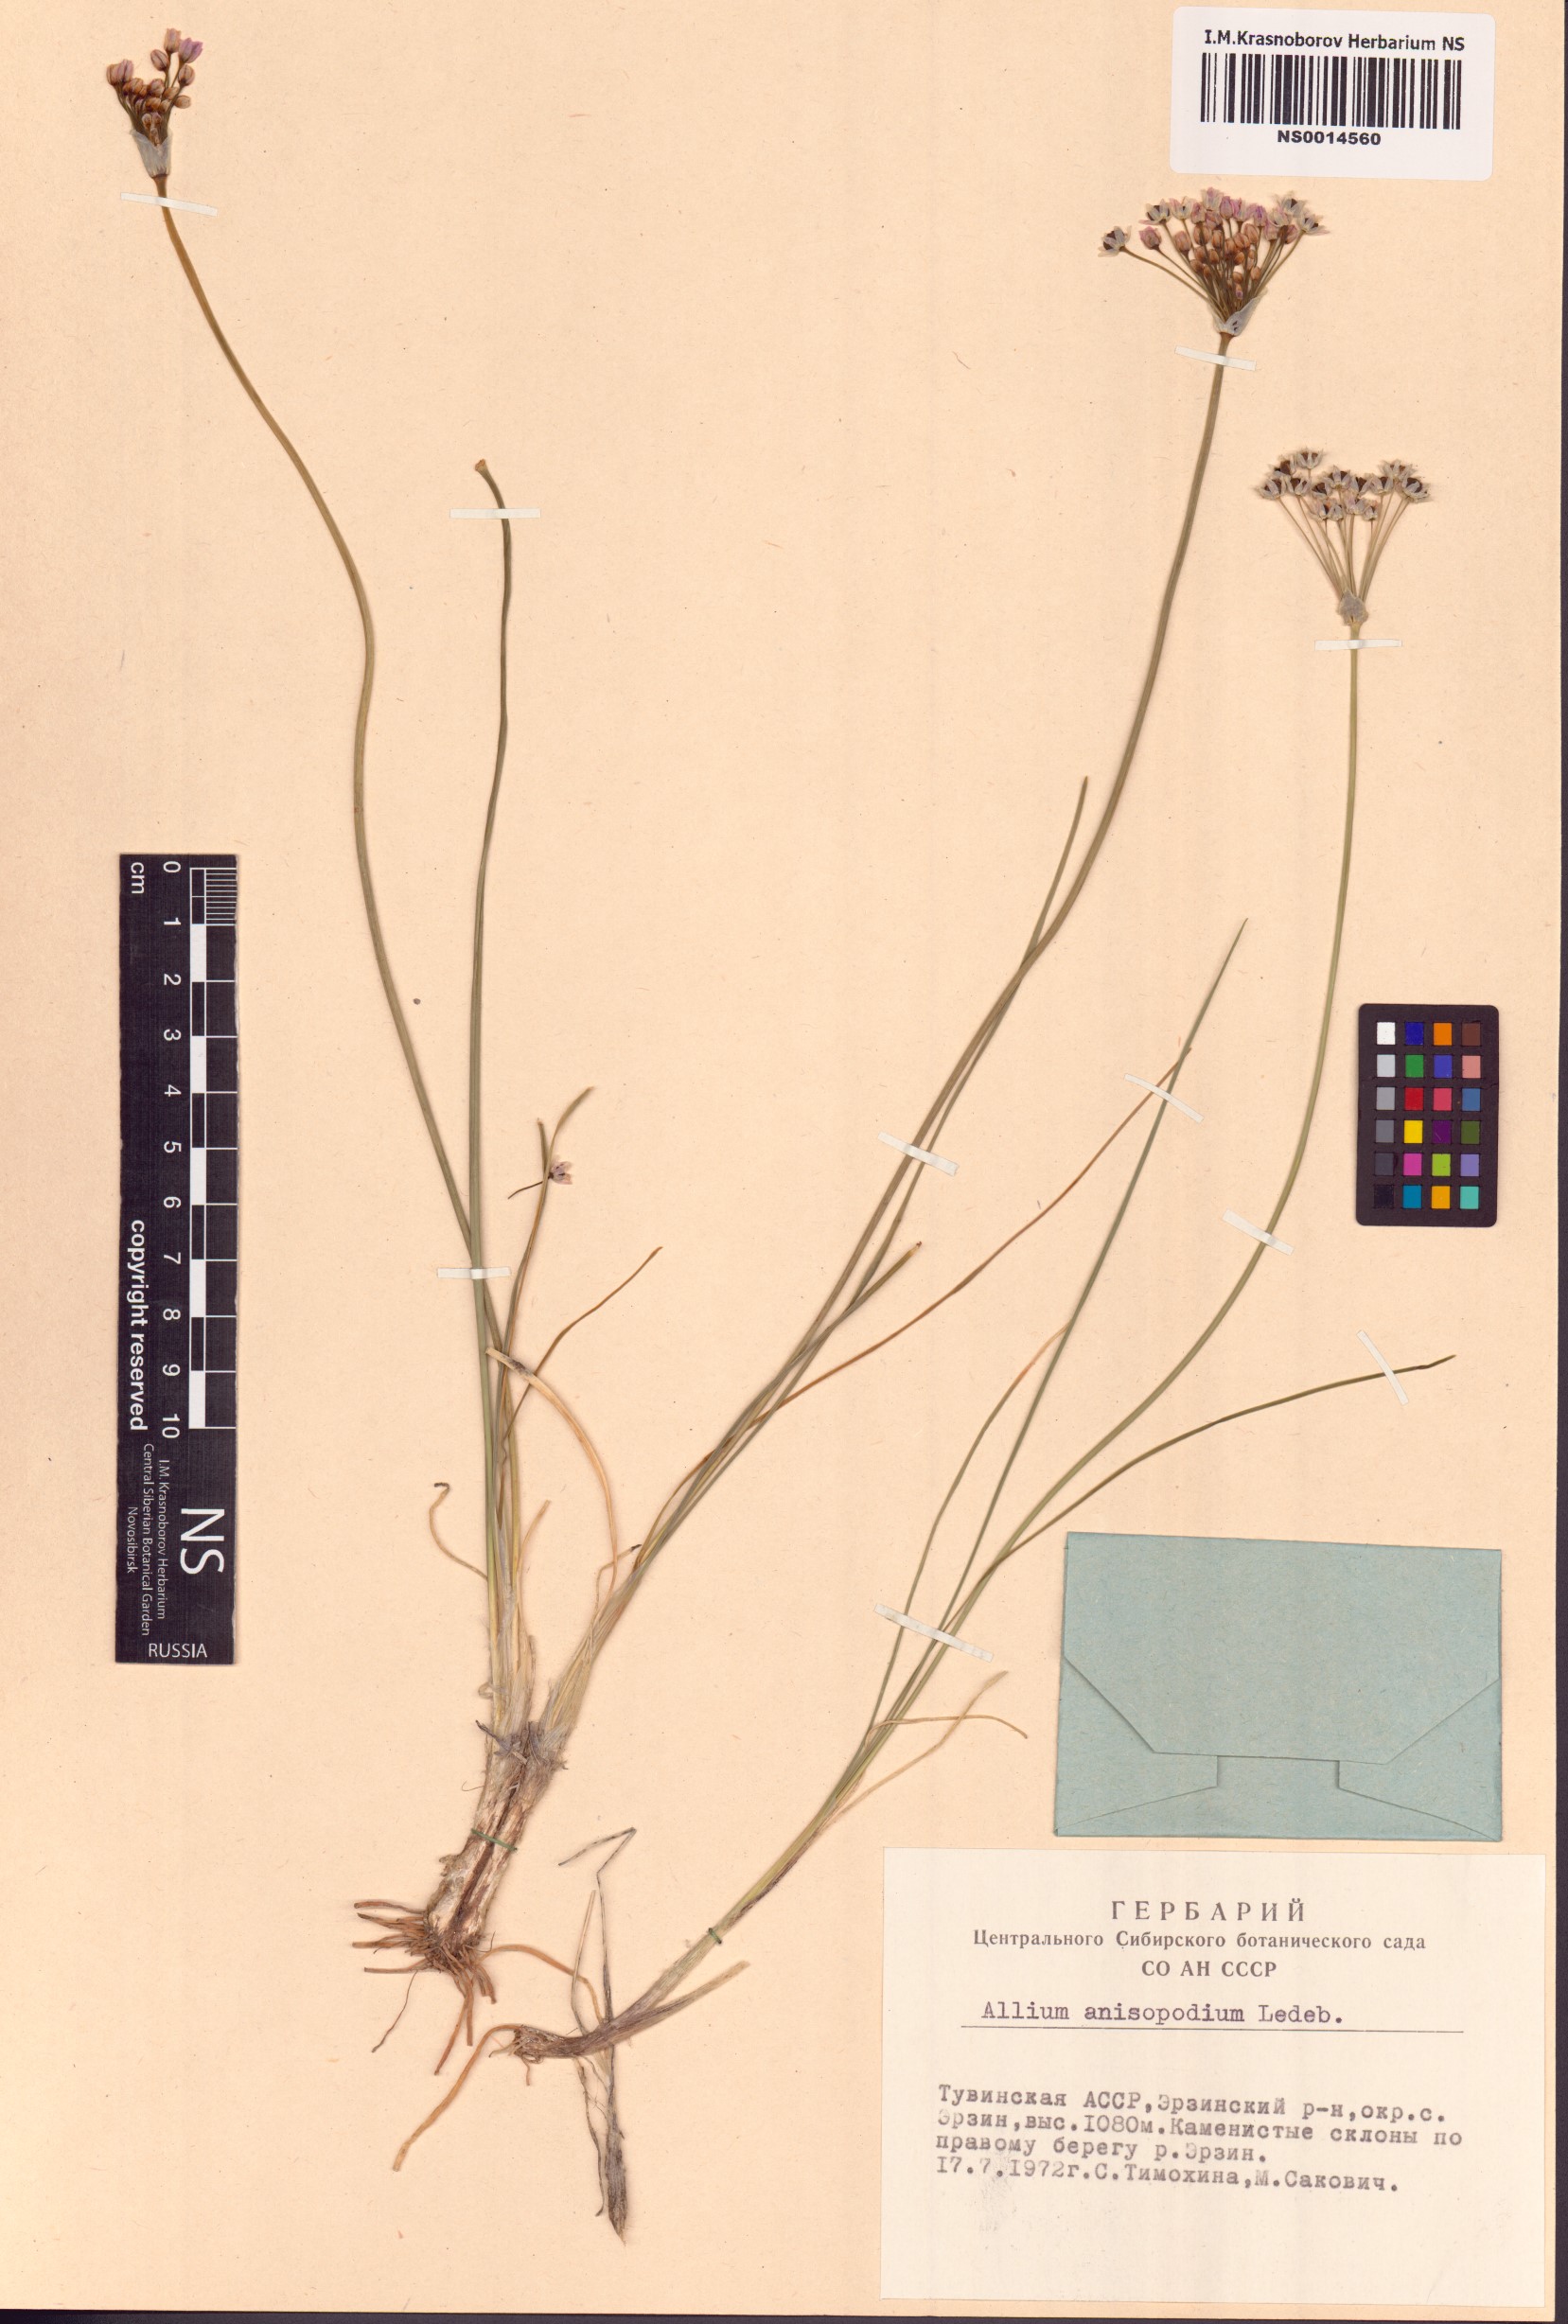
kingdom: Plantae
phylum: Tracheophyta
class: Liliopsida
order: Asparagales
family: Amaryllidaceae
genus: Allium
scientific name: Allium anisopodium
